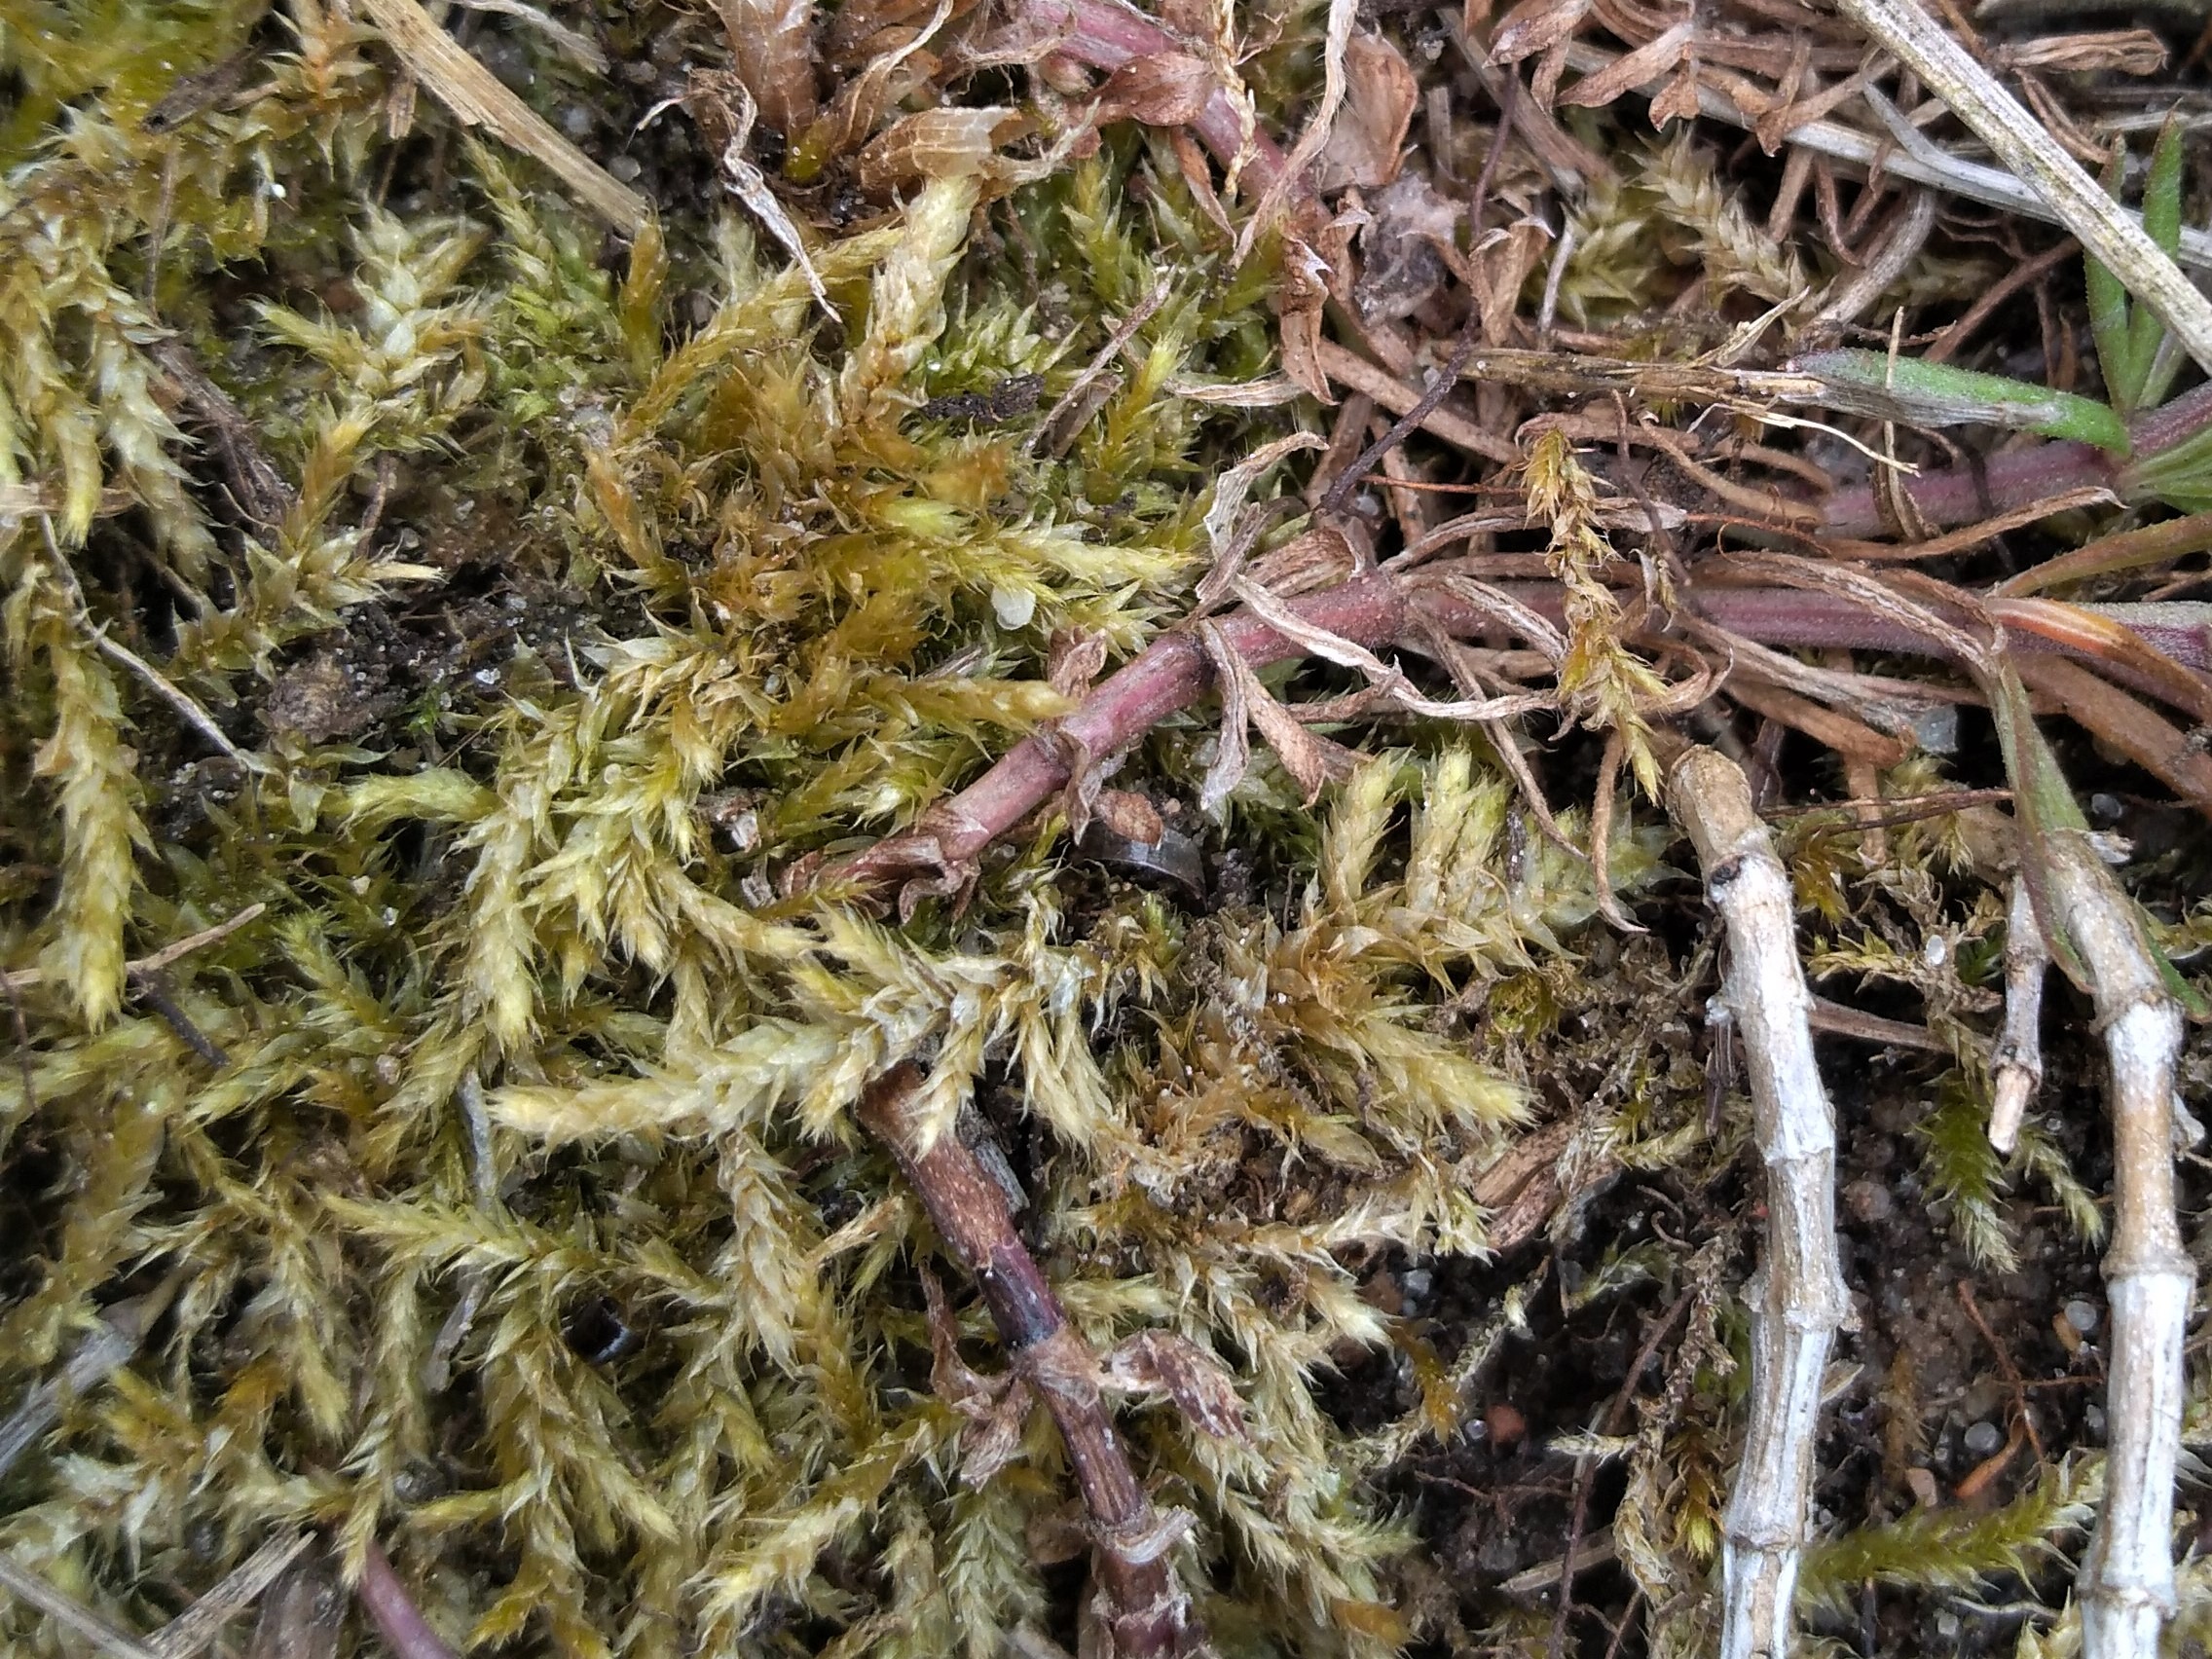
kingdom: Plantae
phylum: Bryophyta
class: Bryopsida
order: Hypnales
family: Brachytheciaceae
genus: Rhynchostegium
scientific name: Rhynchostegium megapolitanum
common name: Bredbladet langnæb
